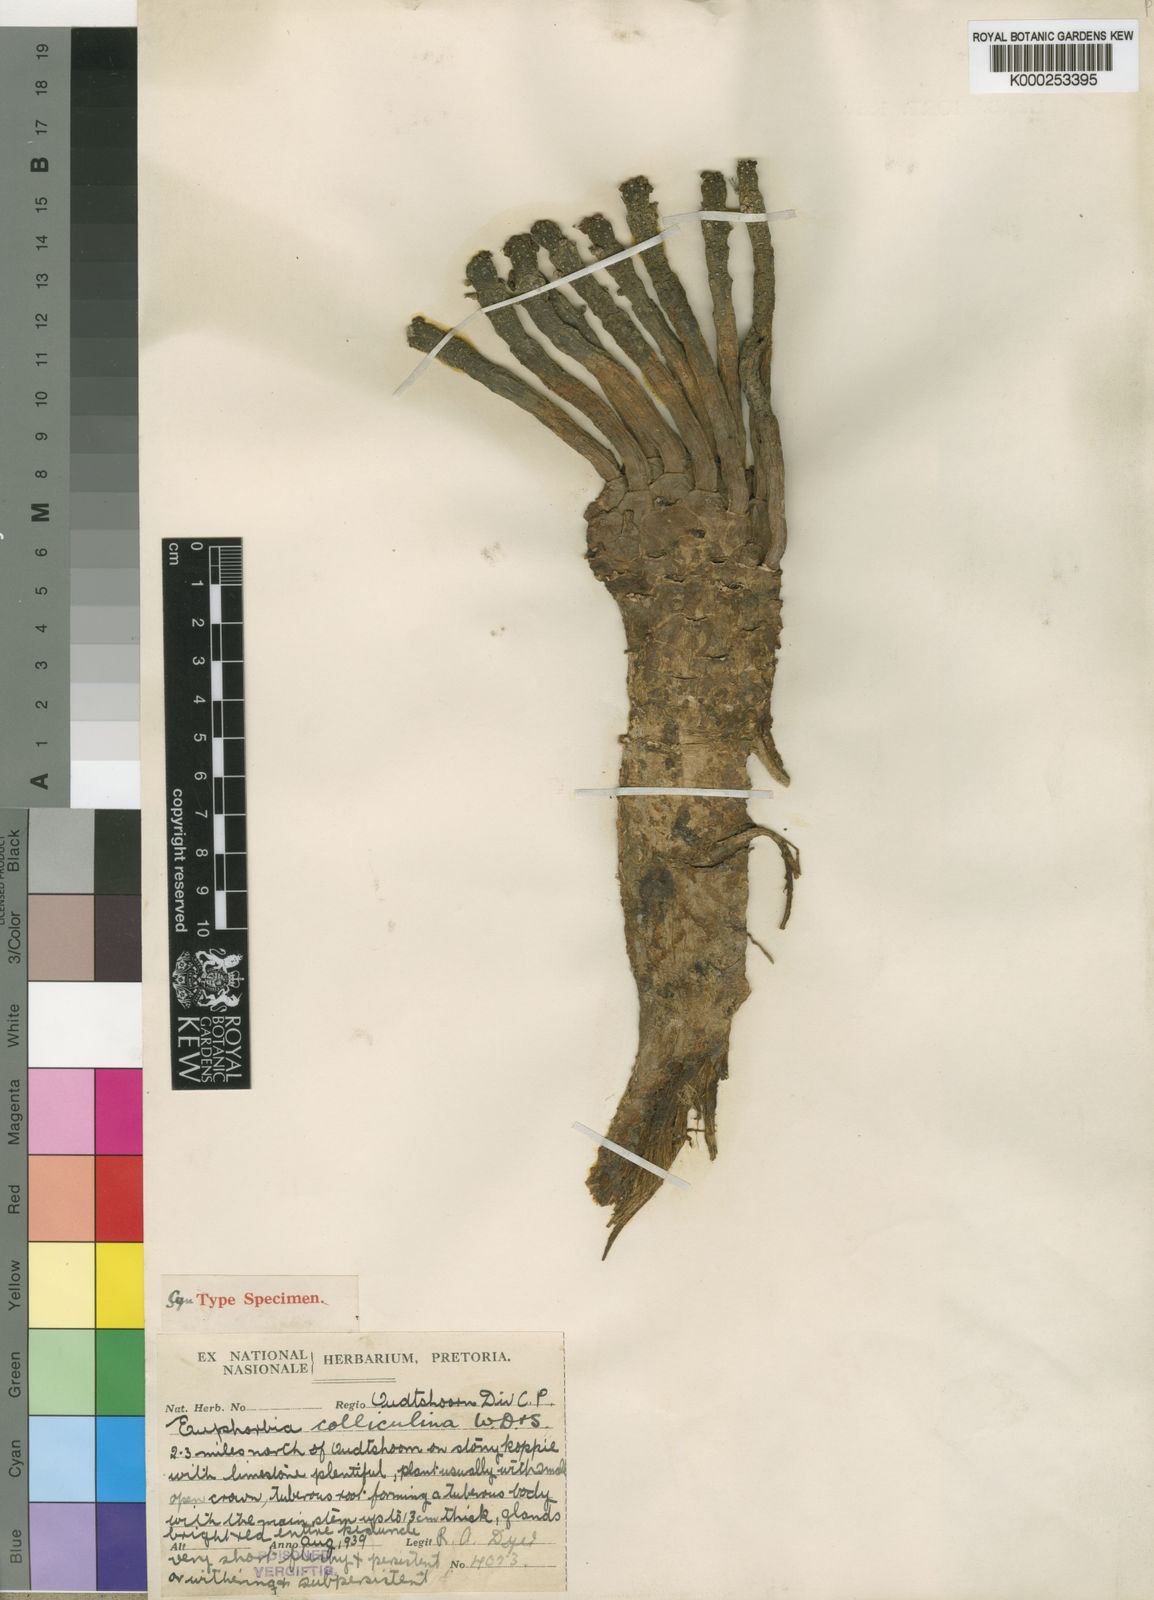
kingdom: Plantae
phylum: Tracheophyta
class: Magnoliopsida
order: Malpighiales
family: Euphorbiaceae
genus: Euphorbia
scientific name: Euphorbia
